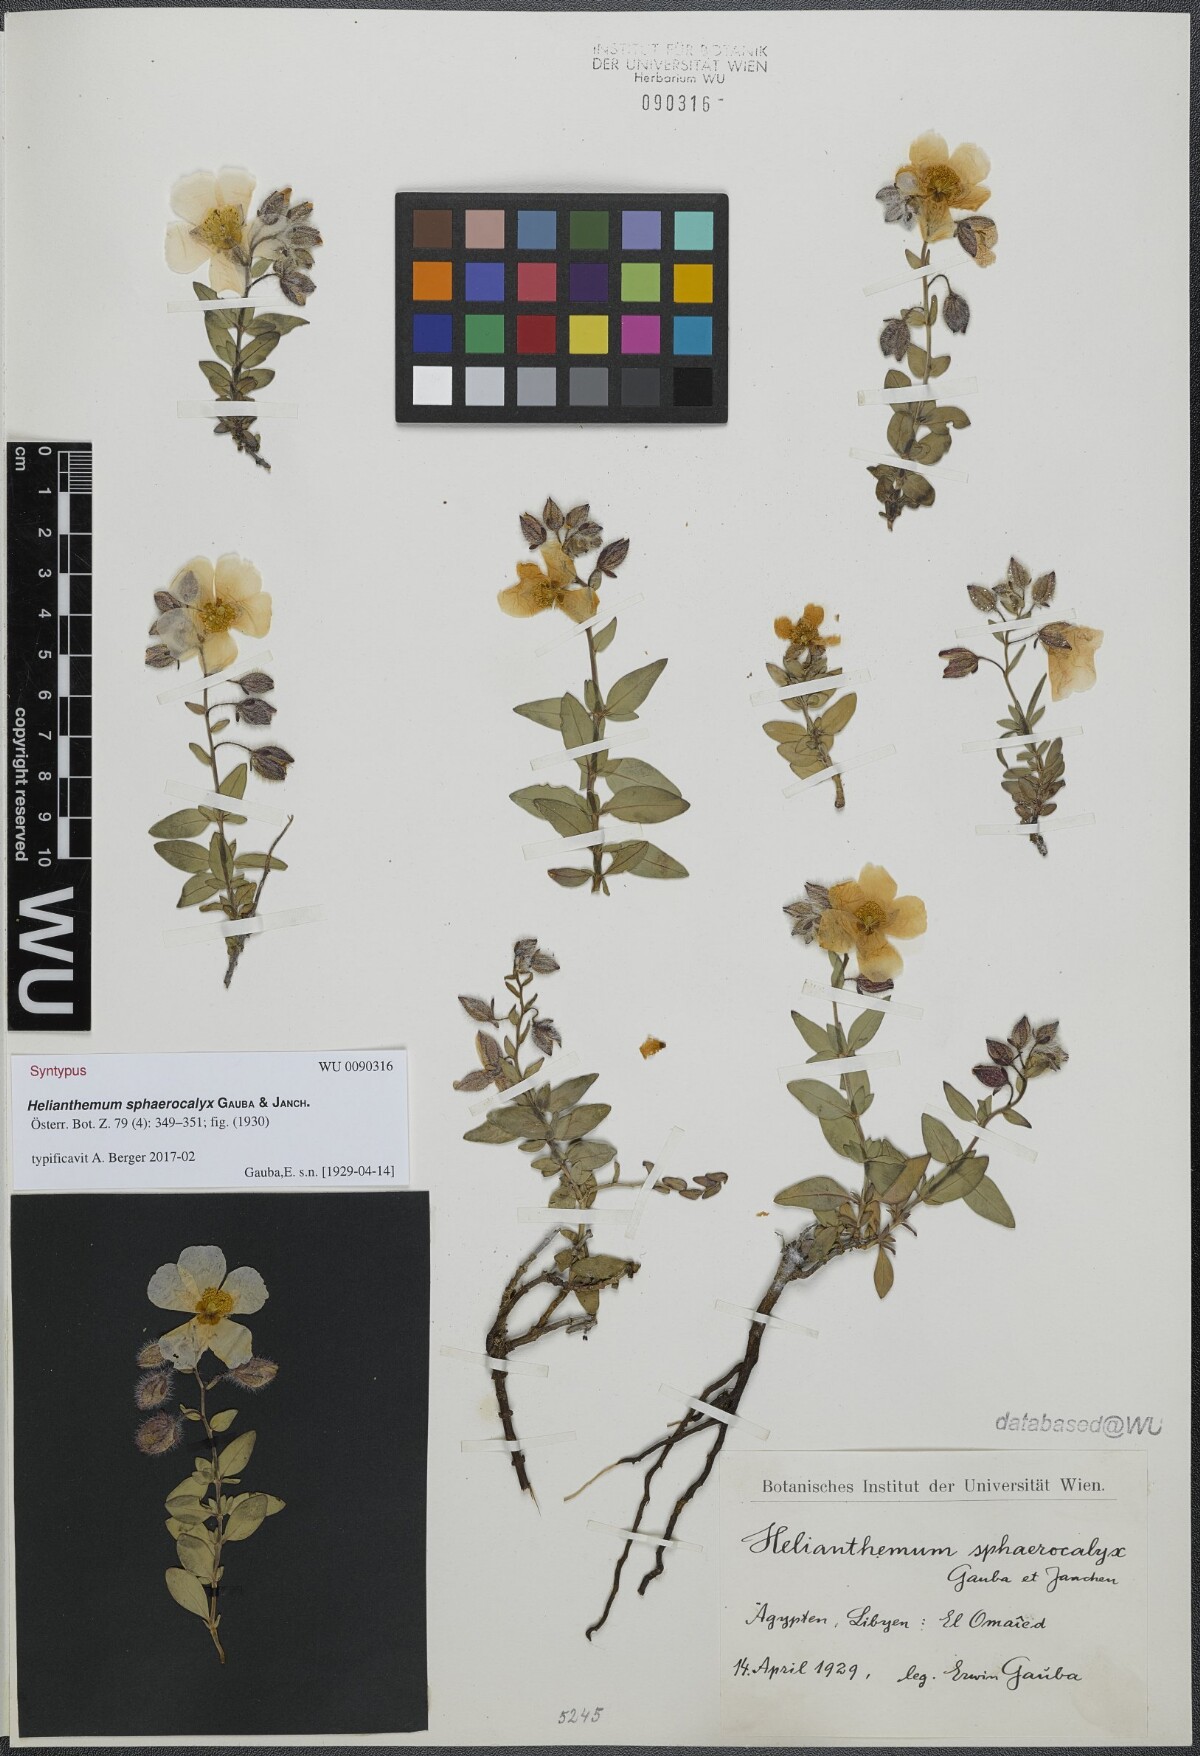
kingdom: Plantae
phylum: Tracheophyta
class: Magnoliopsida
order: Malvales
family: Cistaceae
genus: Helianthemum
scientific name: Helianthemum crassifolium
